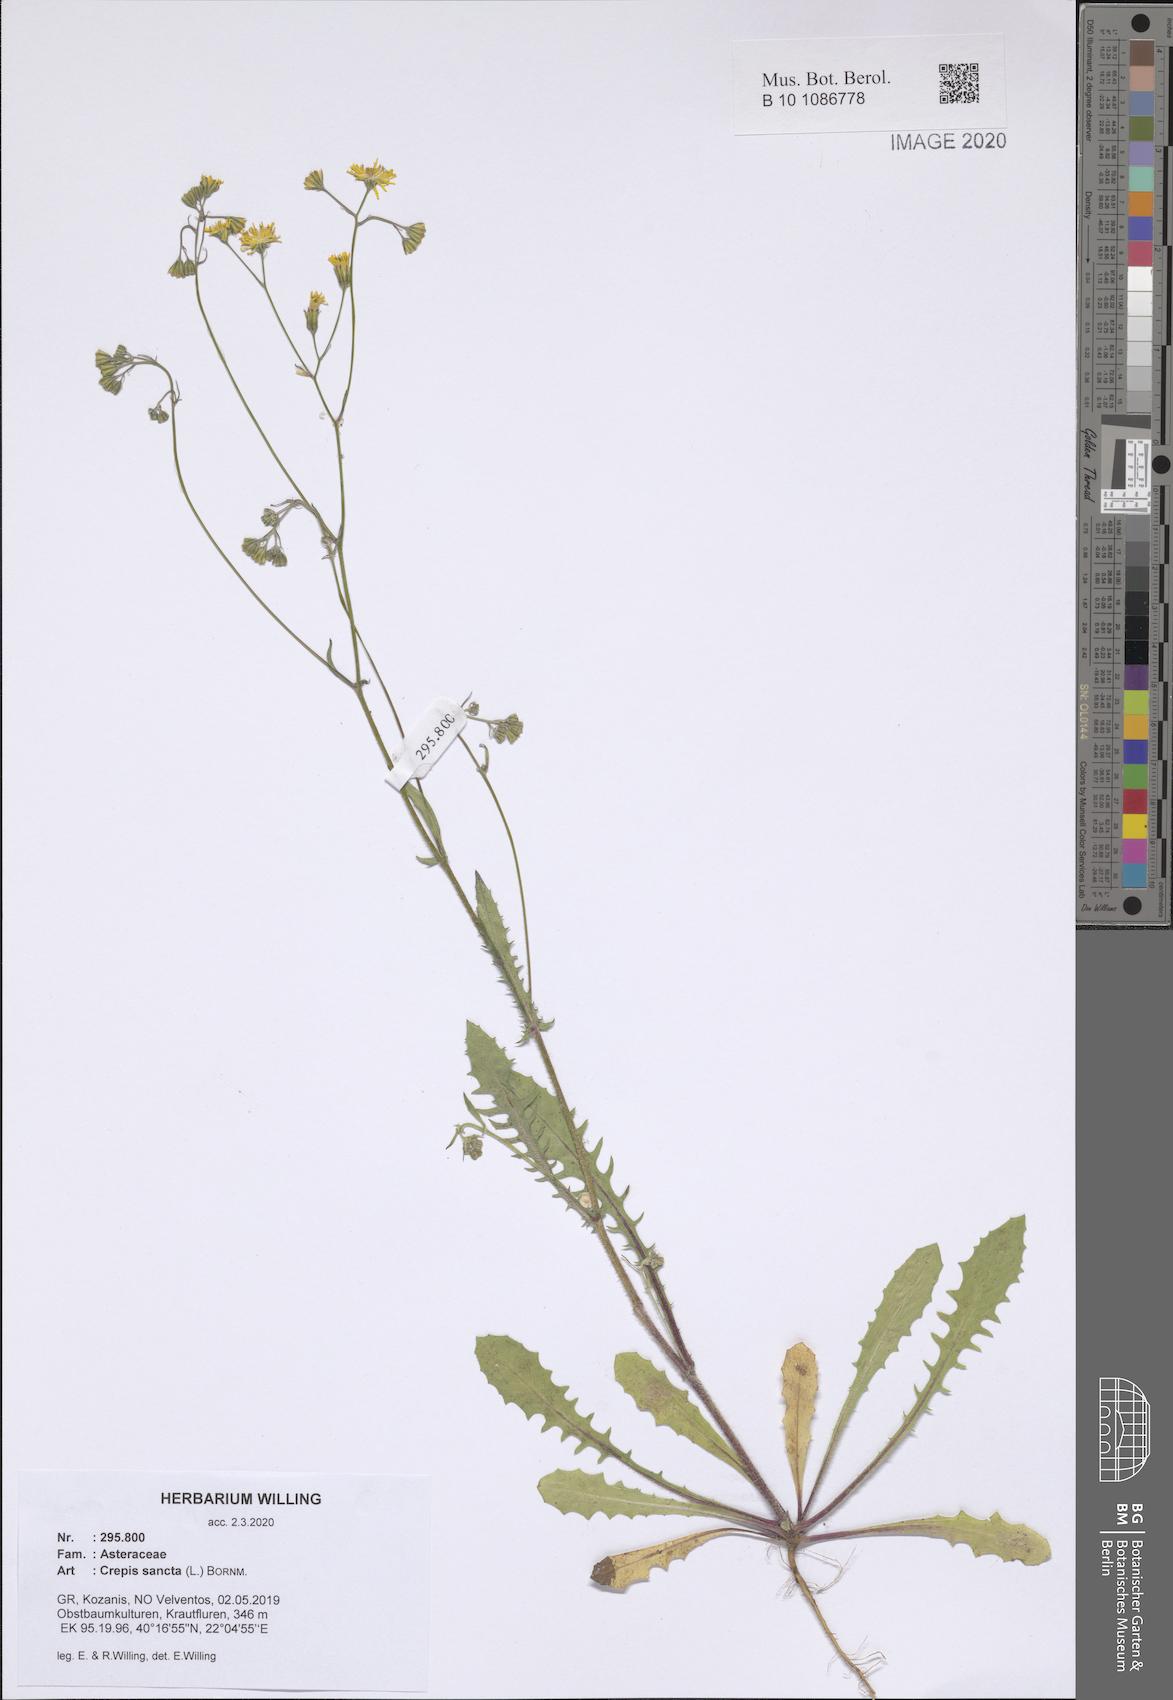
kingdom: Plantae
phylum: Tracheophyta
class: Magnoliopsida
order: Asterales
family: Asteraceae
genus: Crepis
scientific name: Crepis sancta
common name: Hawk's-beard
